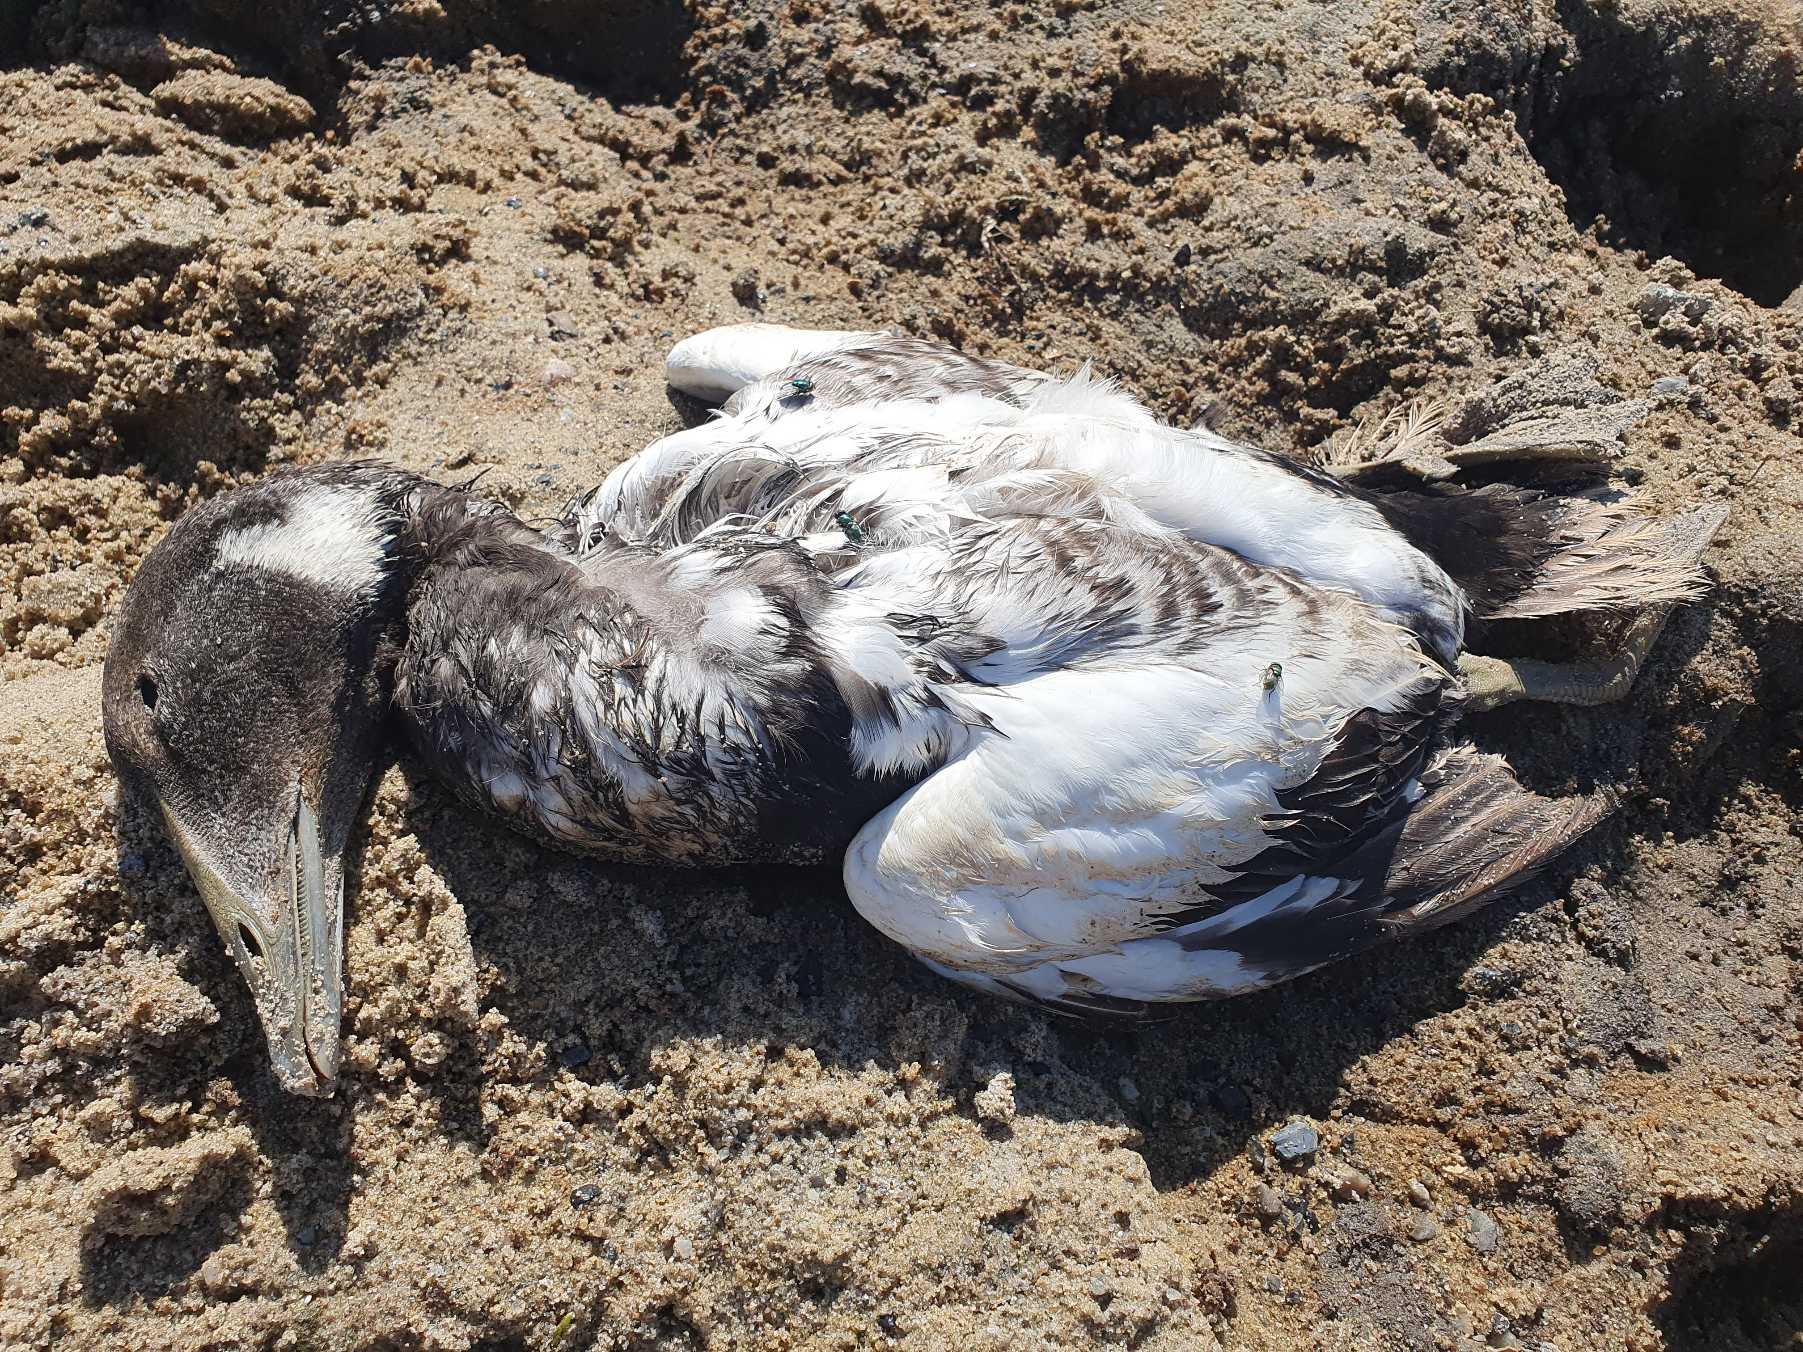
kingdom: Animalia
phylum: Chordata
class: Aves
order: Anseriformes
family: Anatidae
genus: Somateria
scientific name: Somateria mollissima
